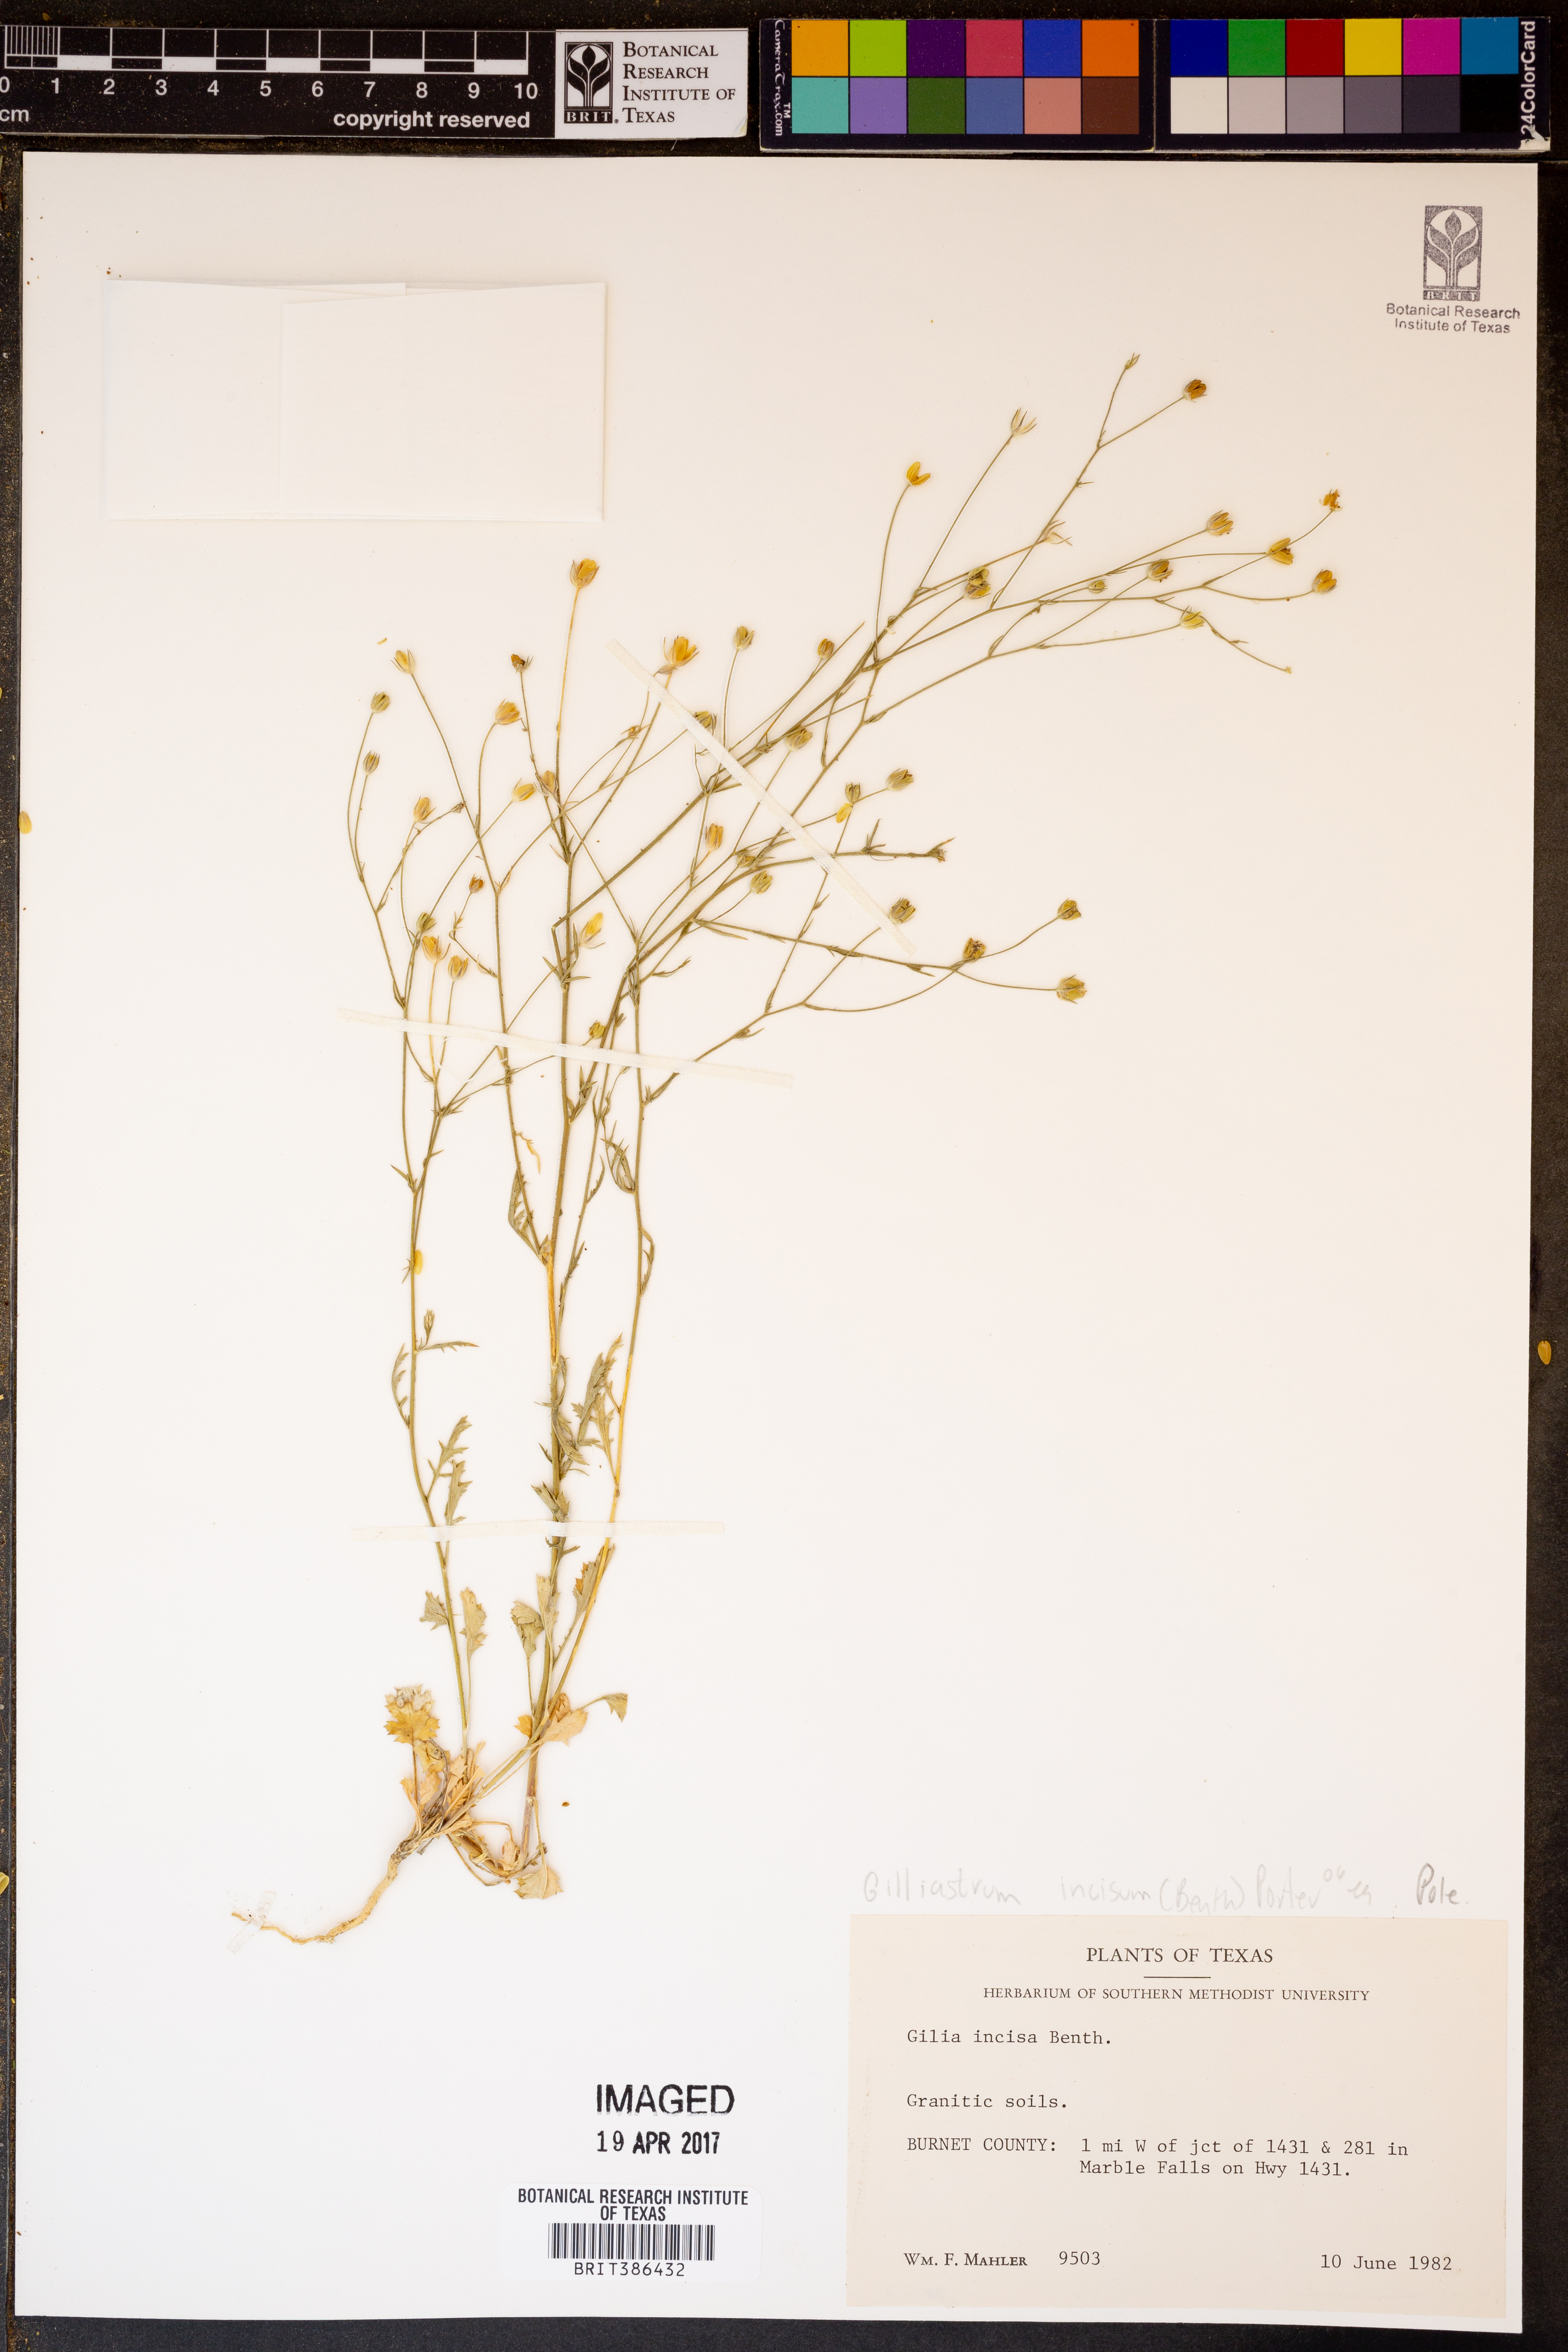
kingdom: Plantae
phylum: Tracheophyta
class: Magnoliopsida
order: Ericales
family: Polemoniaceae
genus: Giliastrum
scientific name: Giliastrum incisum
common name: Splitleaf gilia
